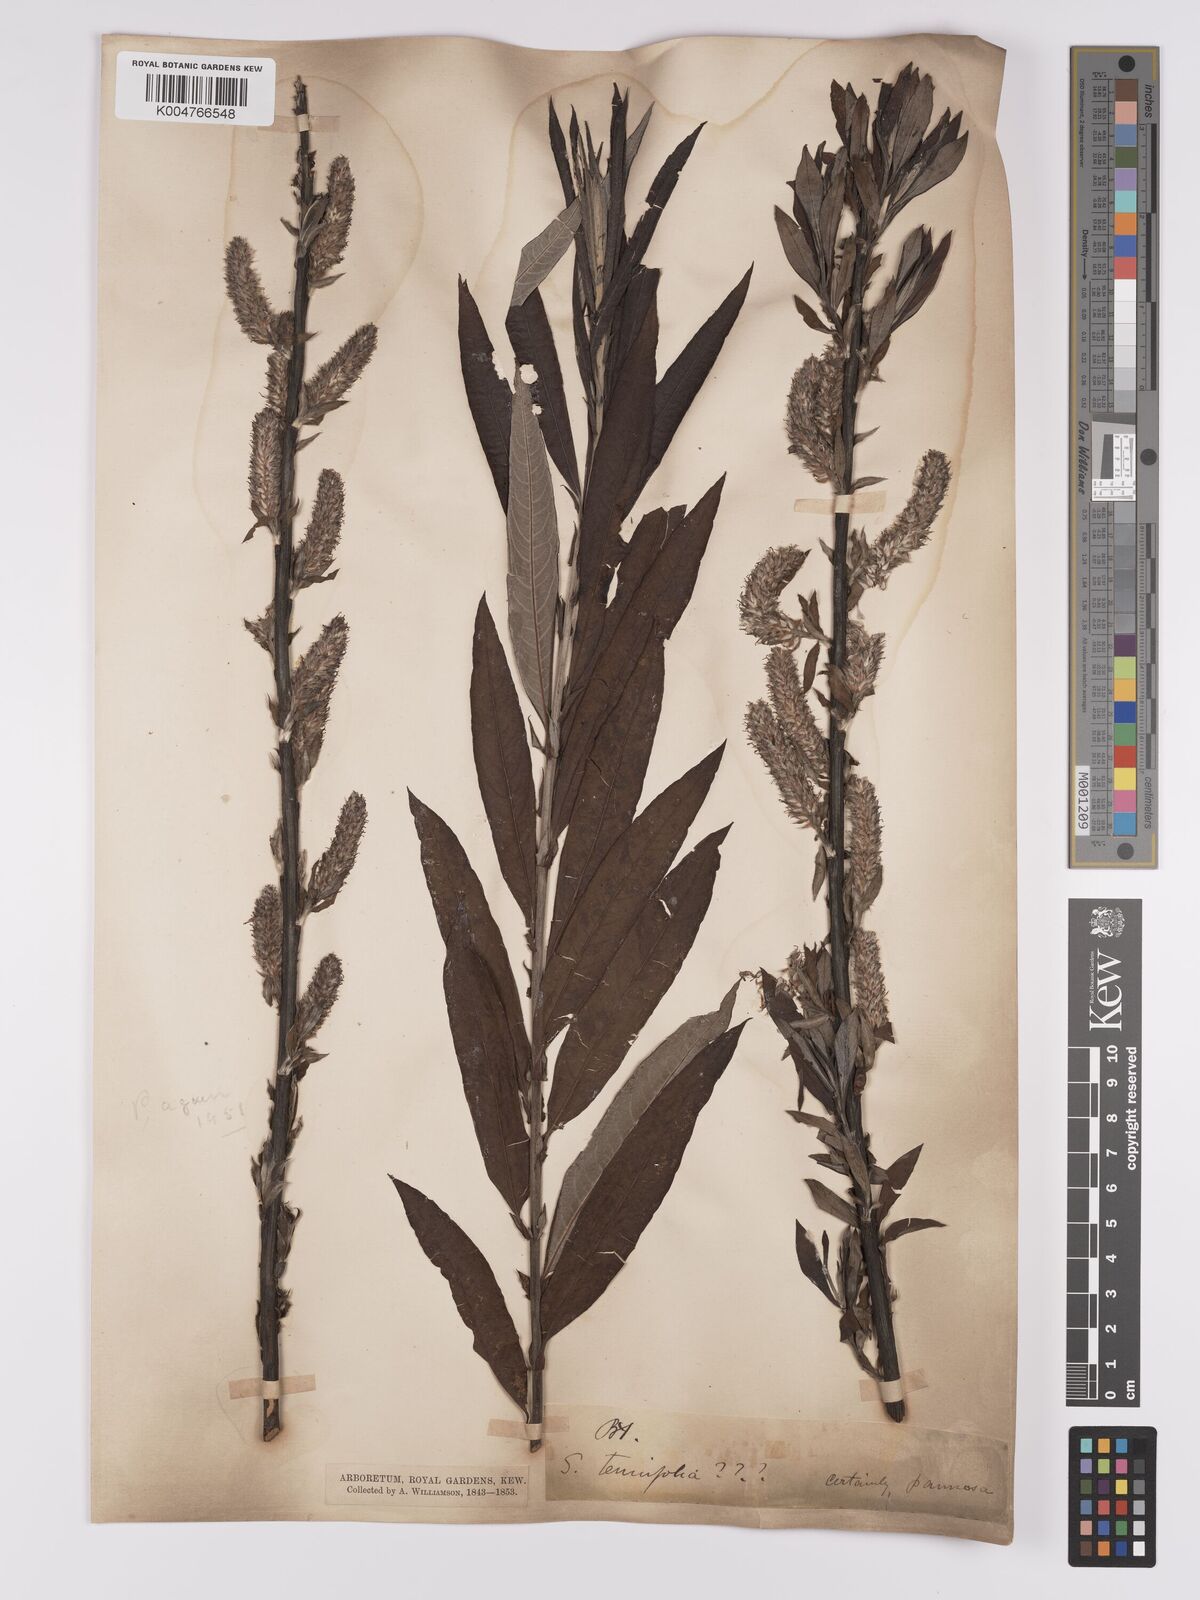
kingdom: Plantae
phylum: Tracheophyta
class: Magnoliopsida
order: Malpighiales
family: Salicaceae
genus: Salix
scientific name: Salix caprea
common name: Goat willow
